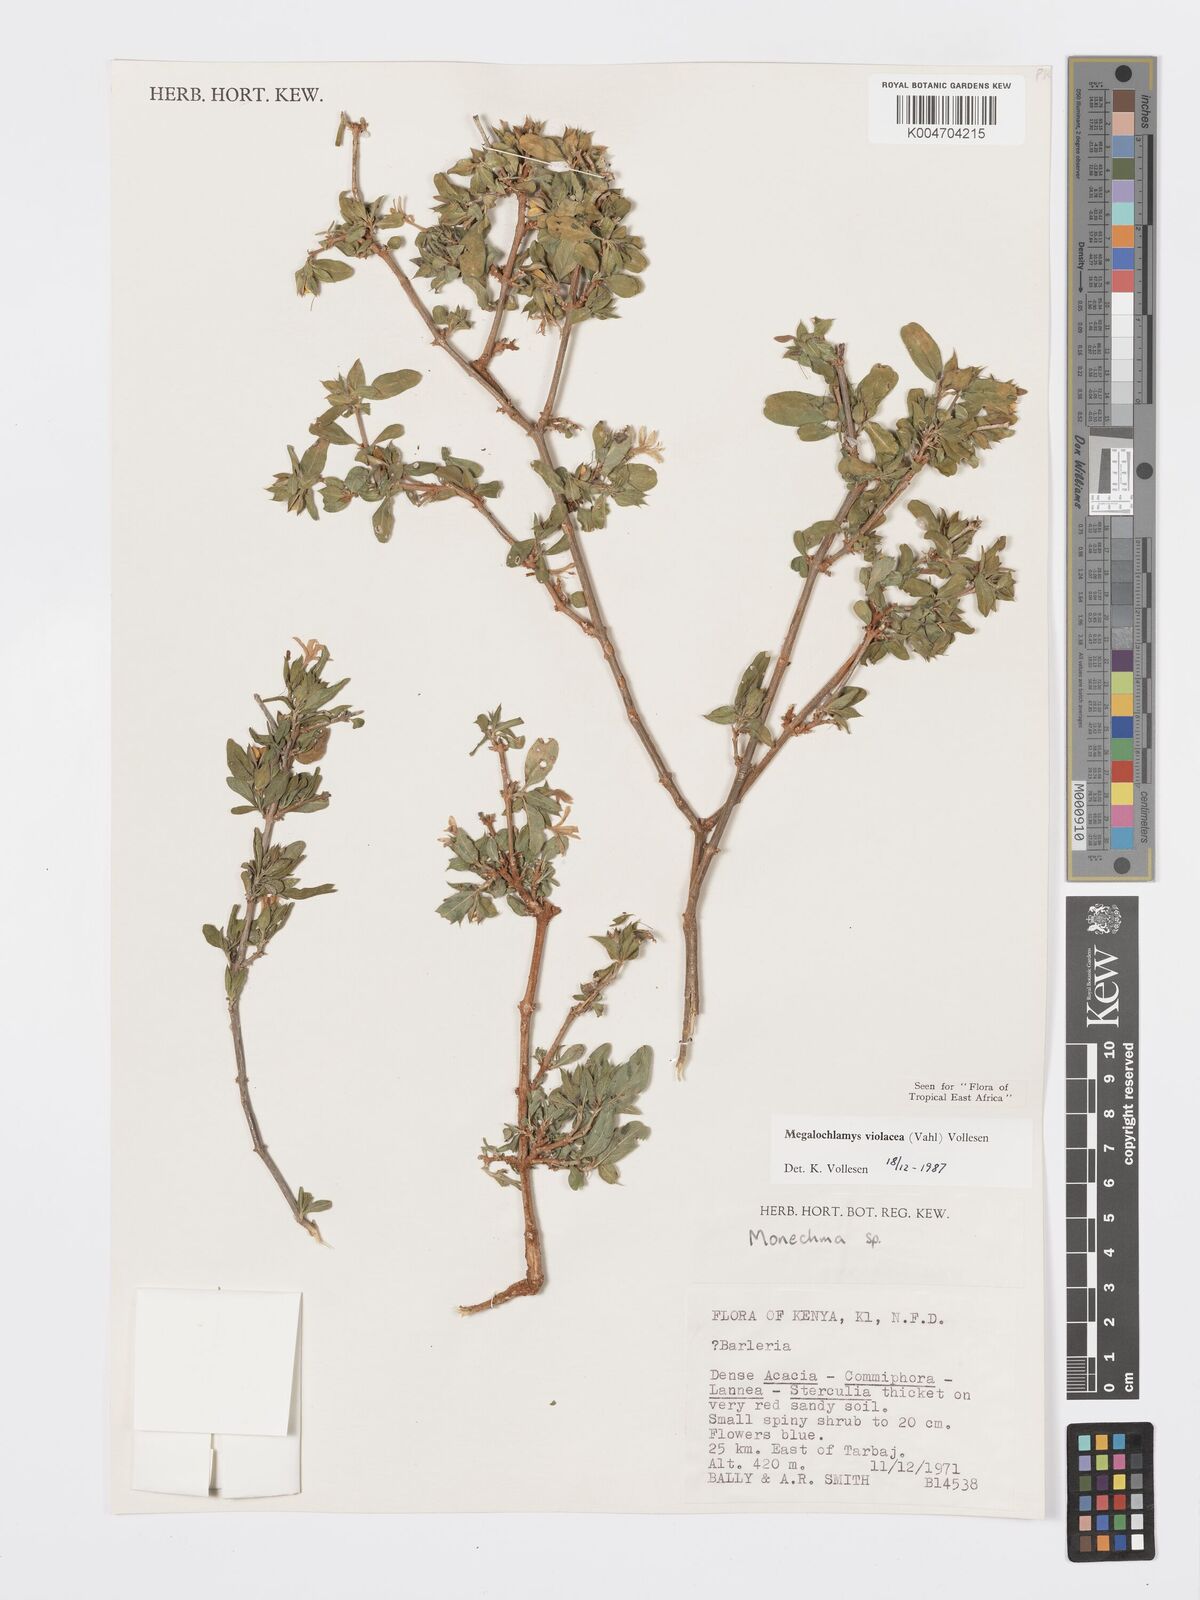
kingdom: Plantae
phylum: Tracheophyta
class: Magnoliopsida
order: Lamiales
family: Acanthaceae
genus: Megalochlamys
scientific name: Megalochlamys violacea
